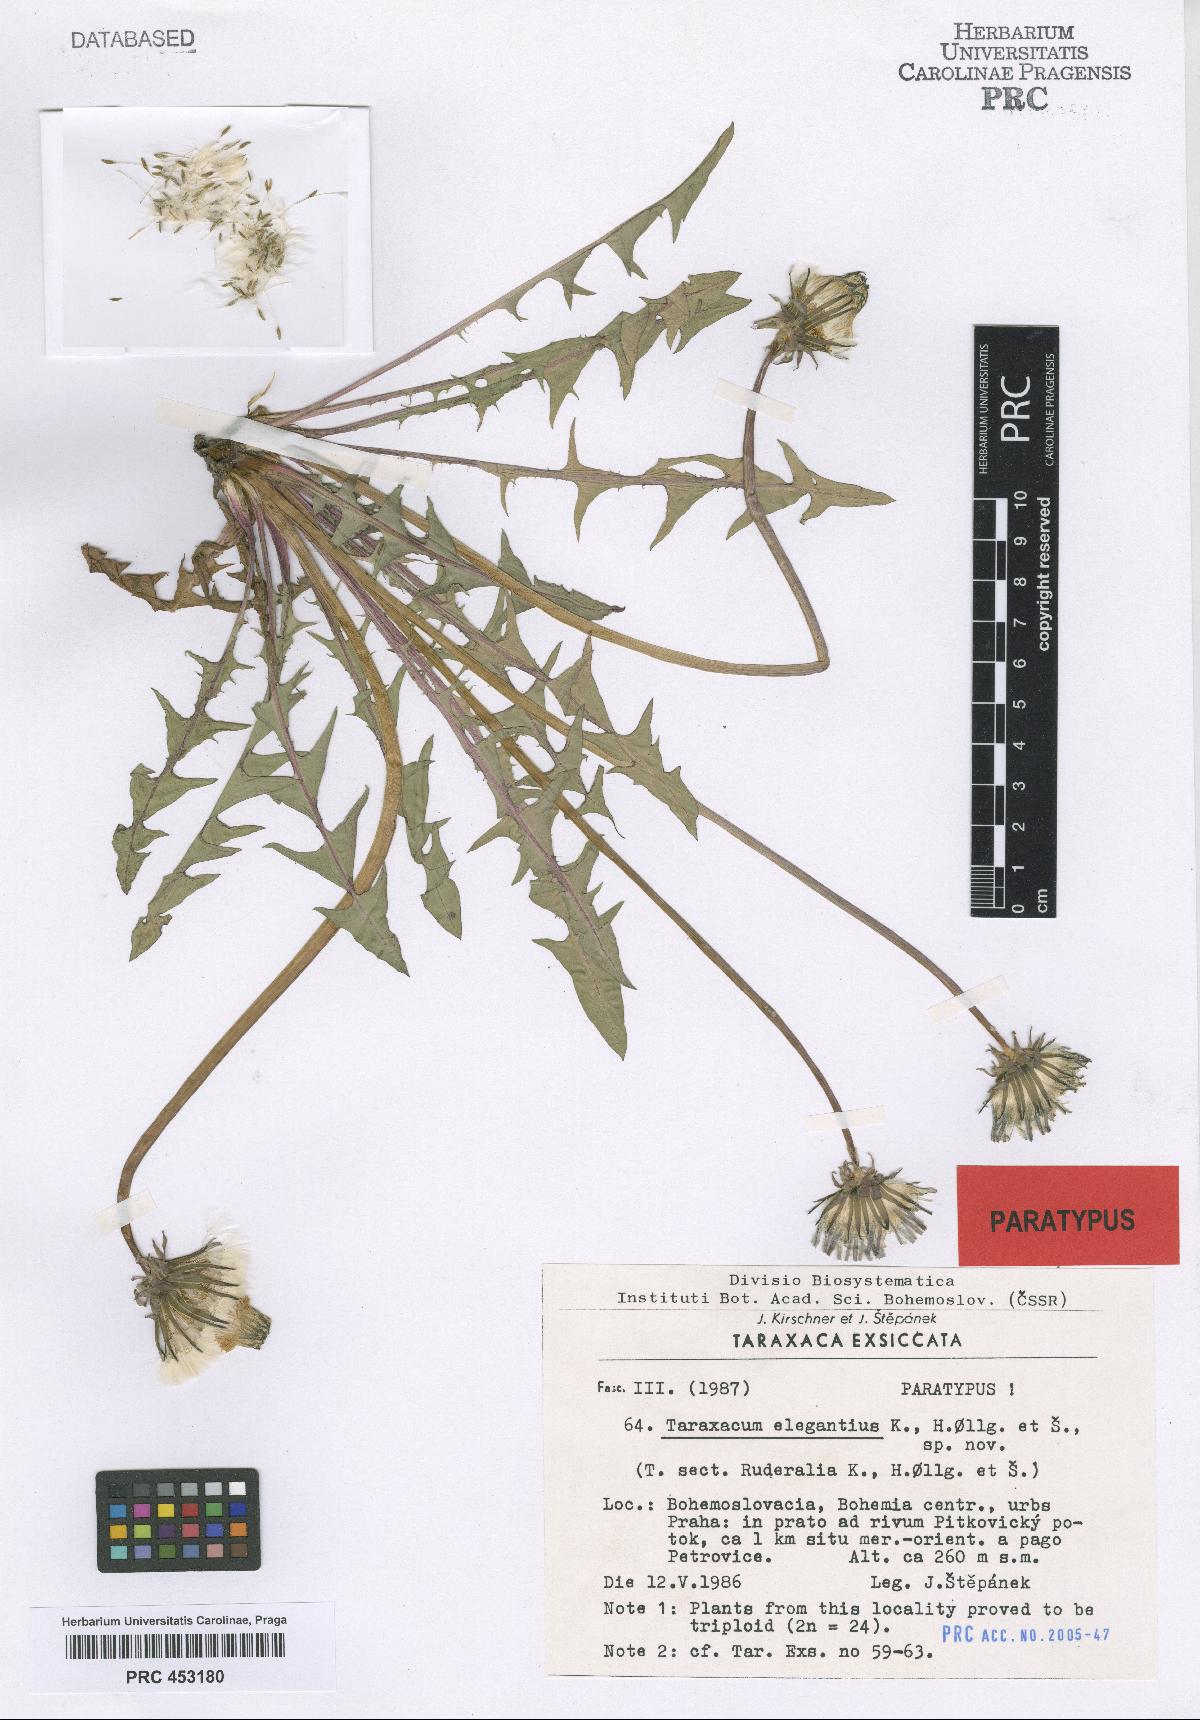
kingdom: Plantae
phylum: Tracheophyta
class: Magnoliopsida
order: Asterales
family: Asteraceae
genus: Taraxacum
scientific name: Taraxacum elegantius
